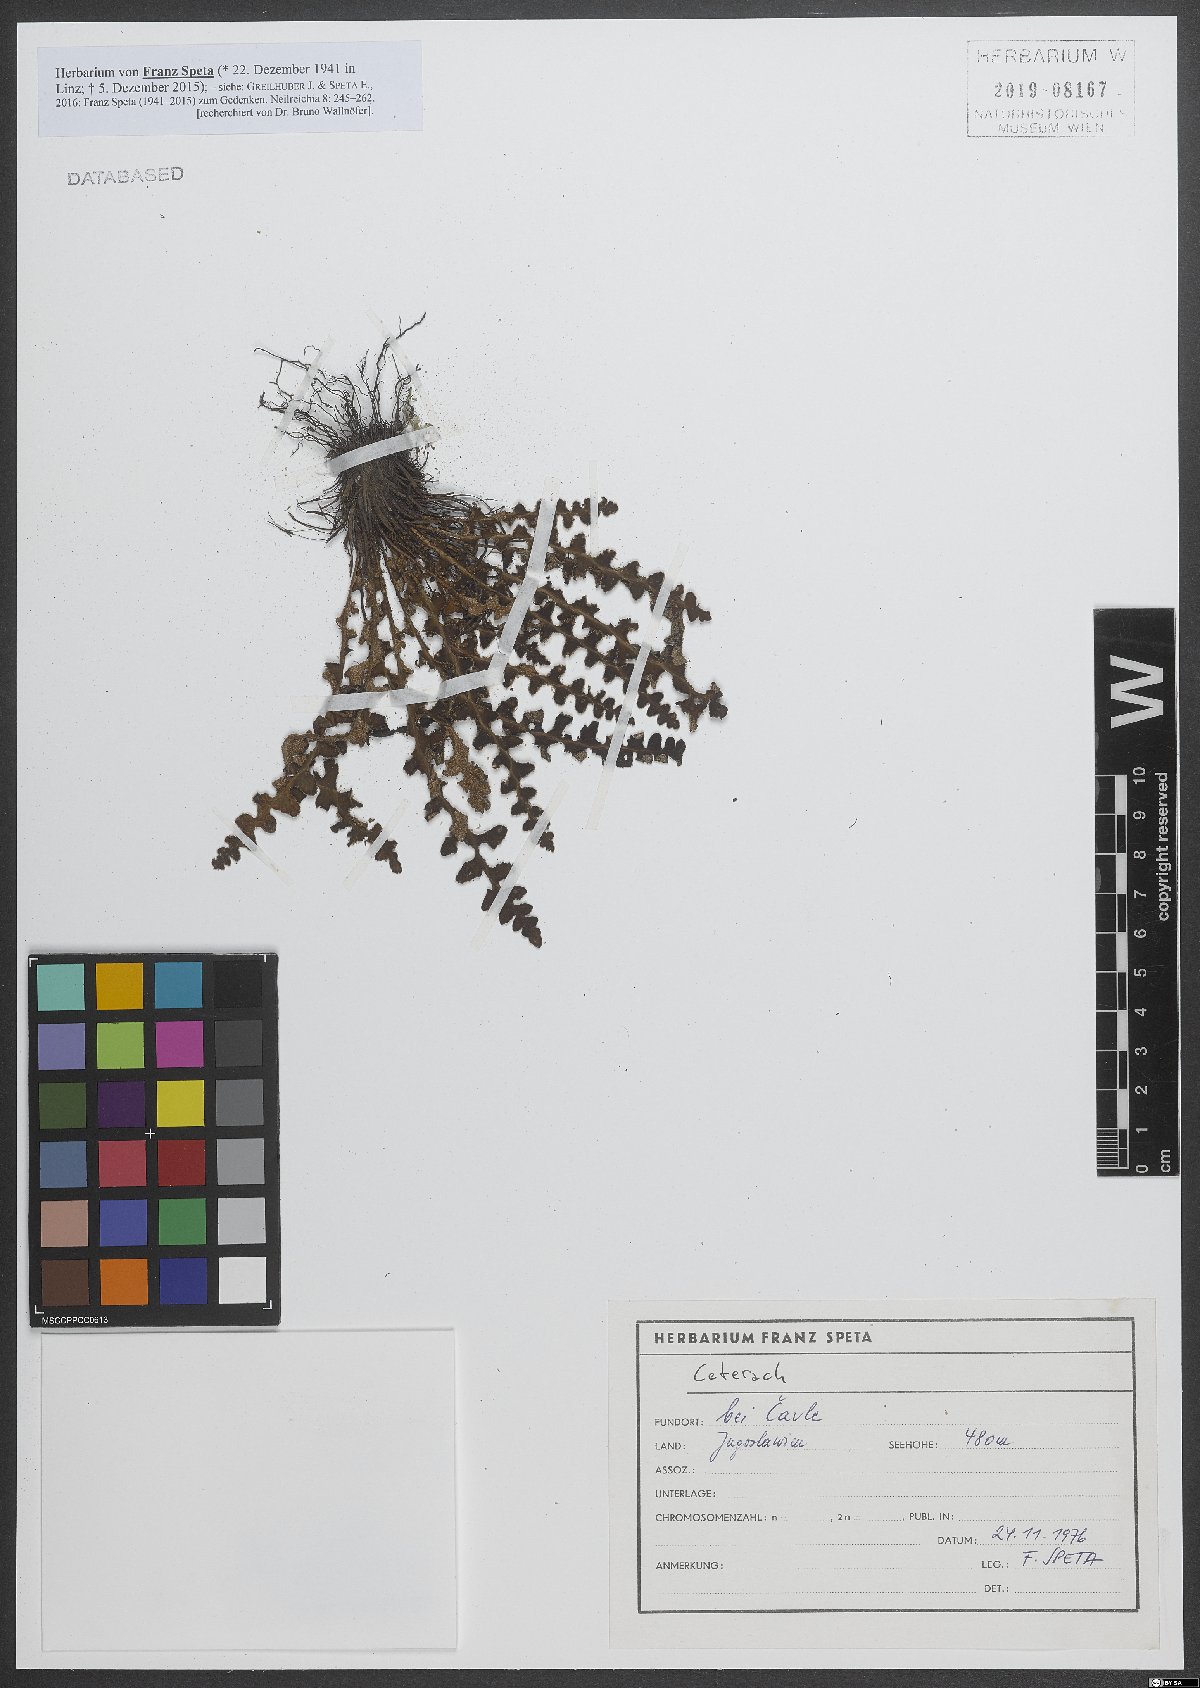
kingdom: Plantae
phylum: Tracheophyta
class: Polypodiopsida
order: Polypodiales
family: Aspleniaceae
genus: Asplenium
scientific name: Asplenium ceterach
